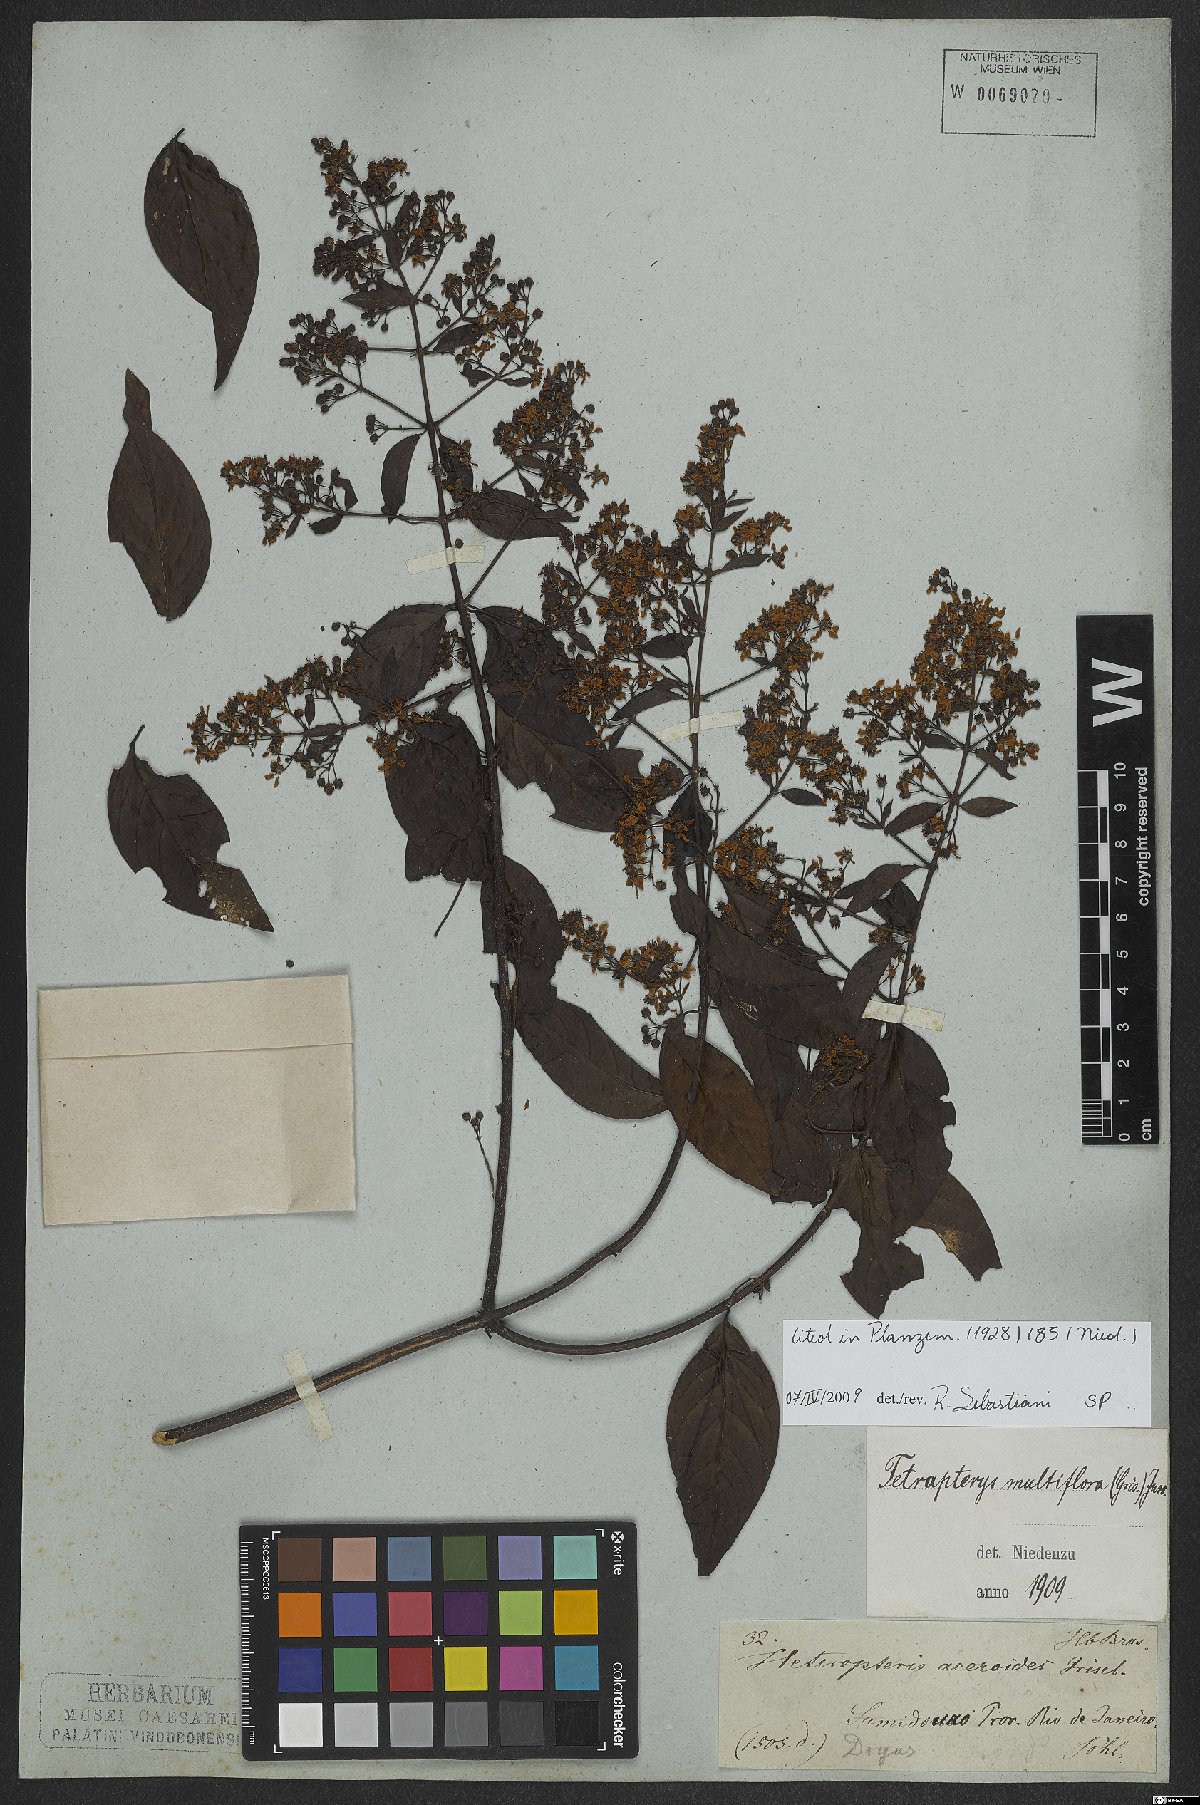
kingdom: Plantae
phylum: Tracheophyta
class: Magnoliopsida
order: Malpighiales
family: Malpighiaceae
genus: Niedenzuella
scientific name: Niedenzuella mogoriifolia
